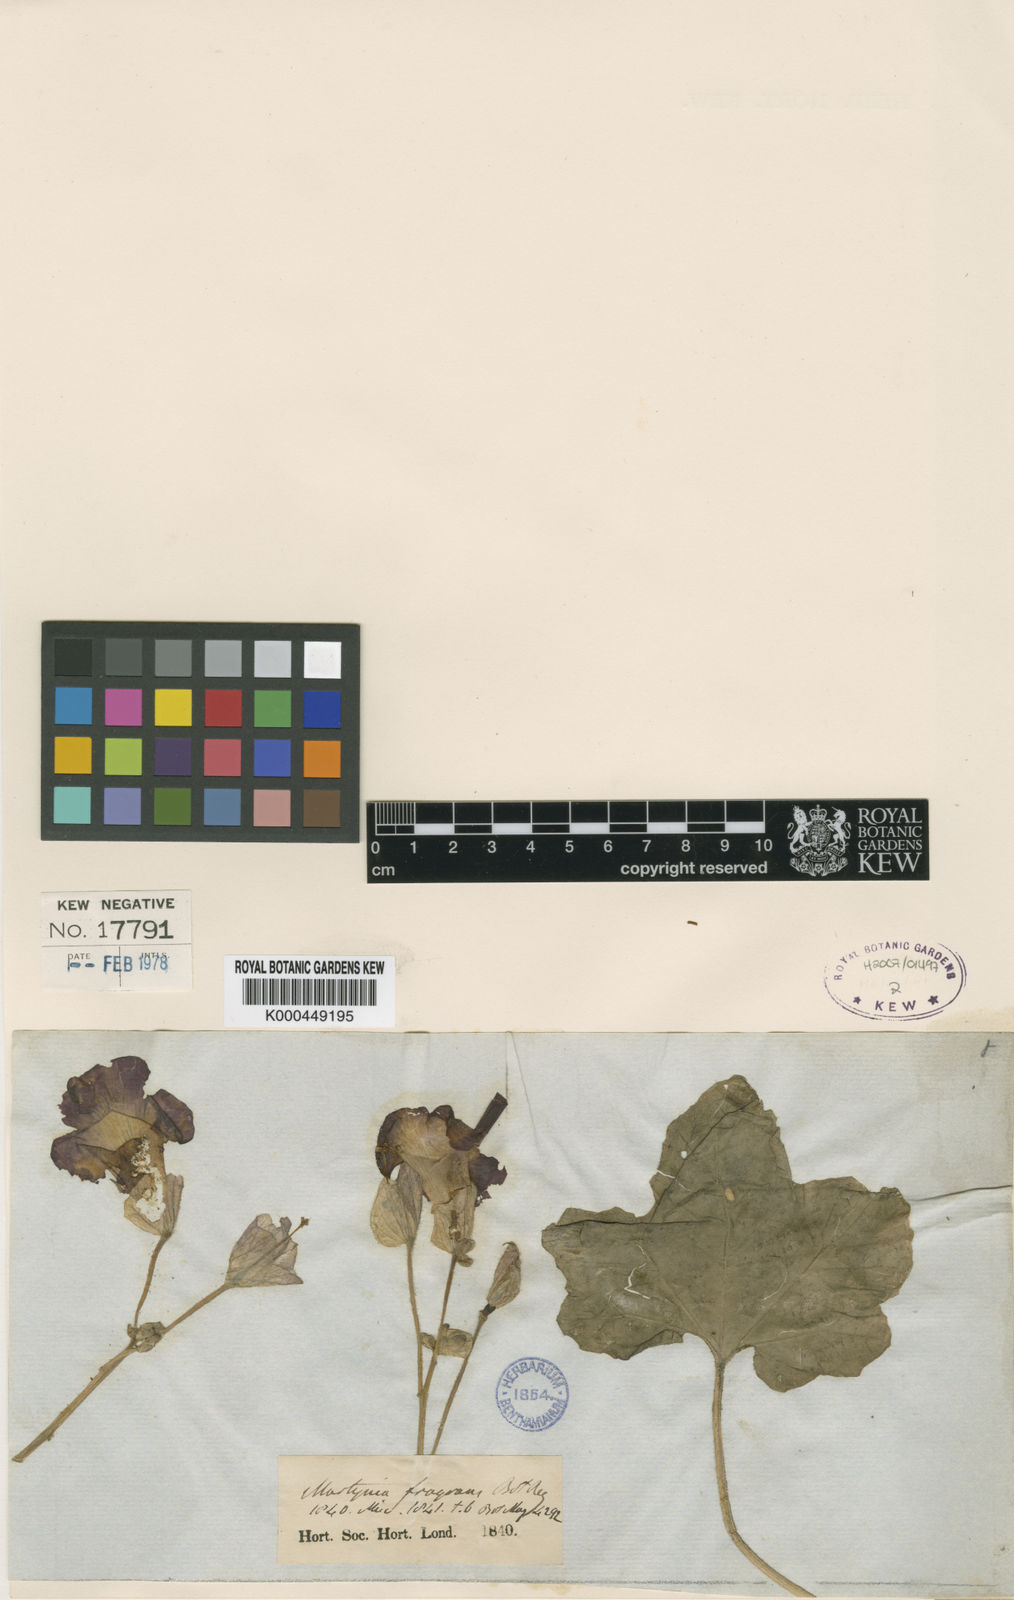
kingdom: Plantae
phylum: Tracheophyta
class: Magnoliopsida
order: Lamiales
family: Martyniaceae
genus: Proboscidea
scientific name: Proboscidea louisianica
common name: Elephant tusks
